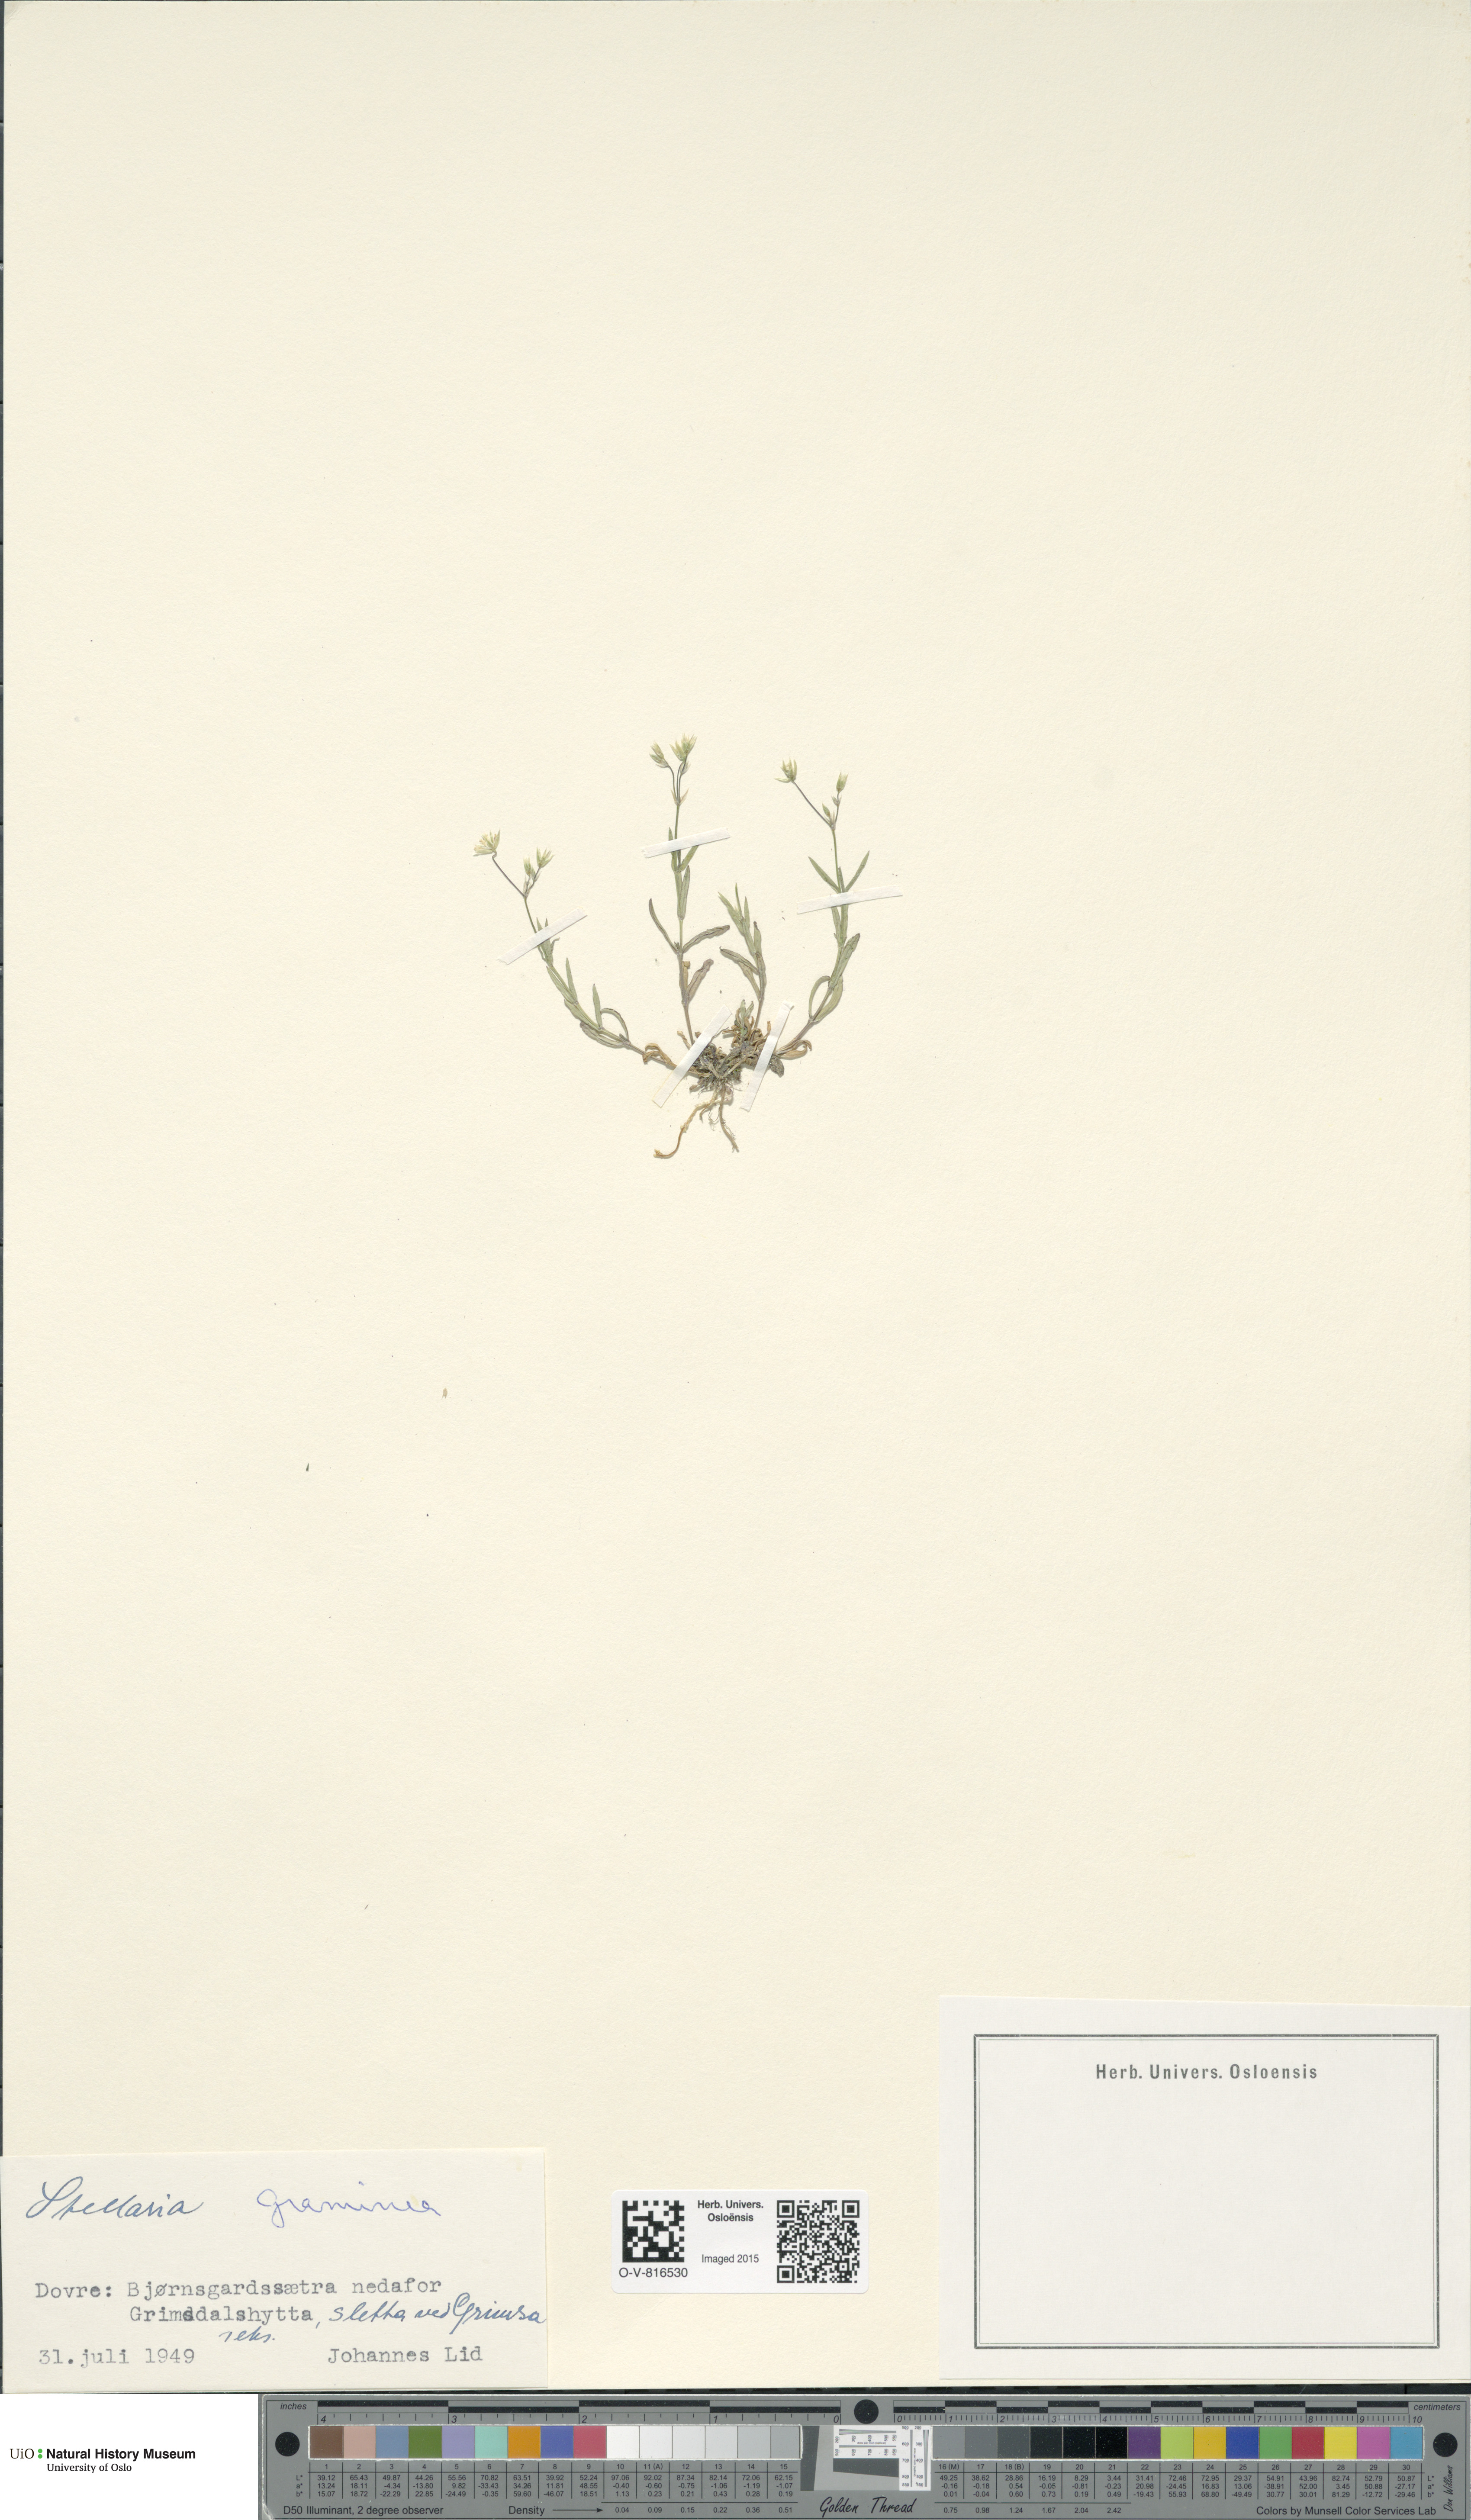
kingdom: Plantae
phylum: Tracheophyta
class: Magnoliopsida
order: Caryophyllales
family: Caryophyllaceae
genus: Stellaria
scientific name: Stellaria graminea
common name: Grass-like starwort
